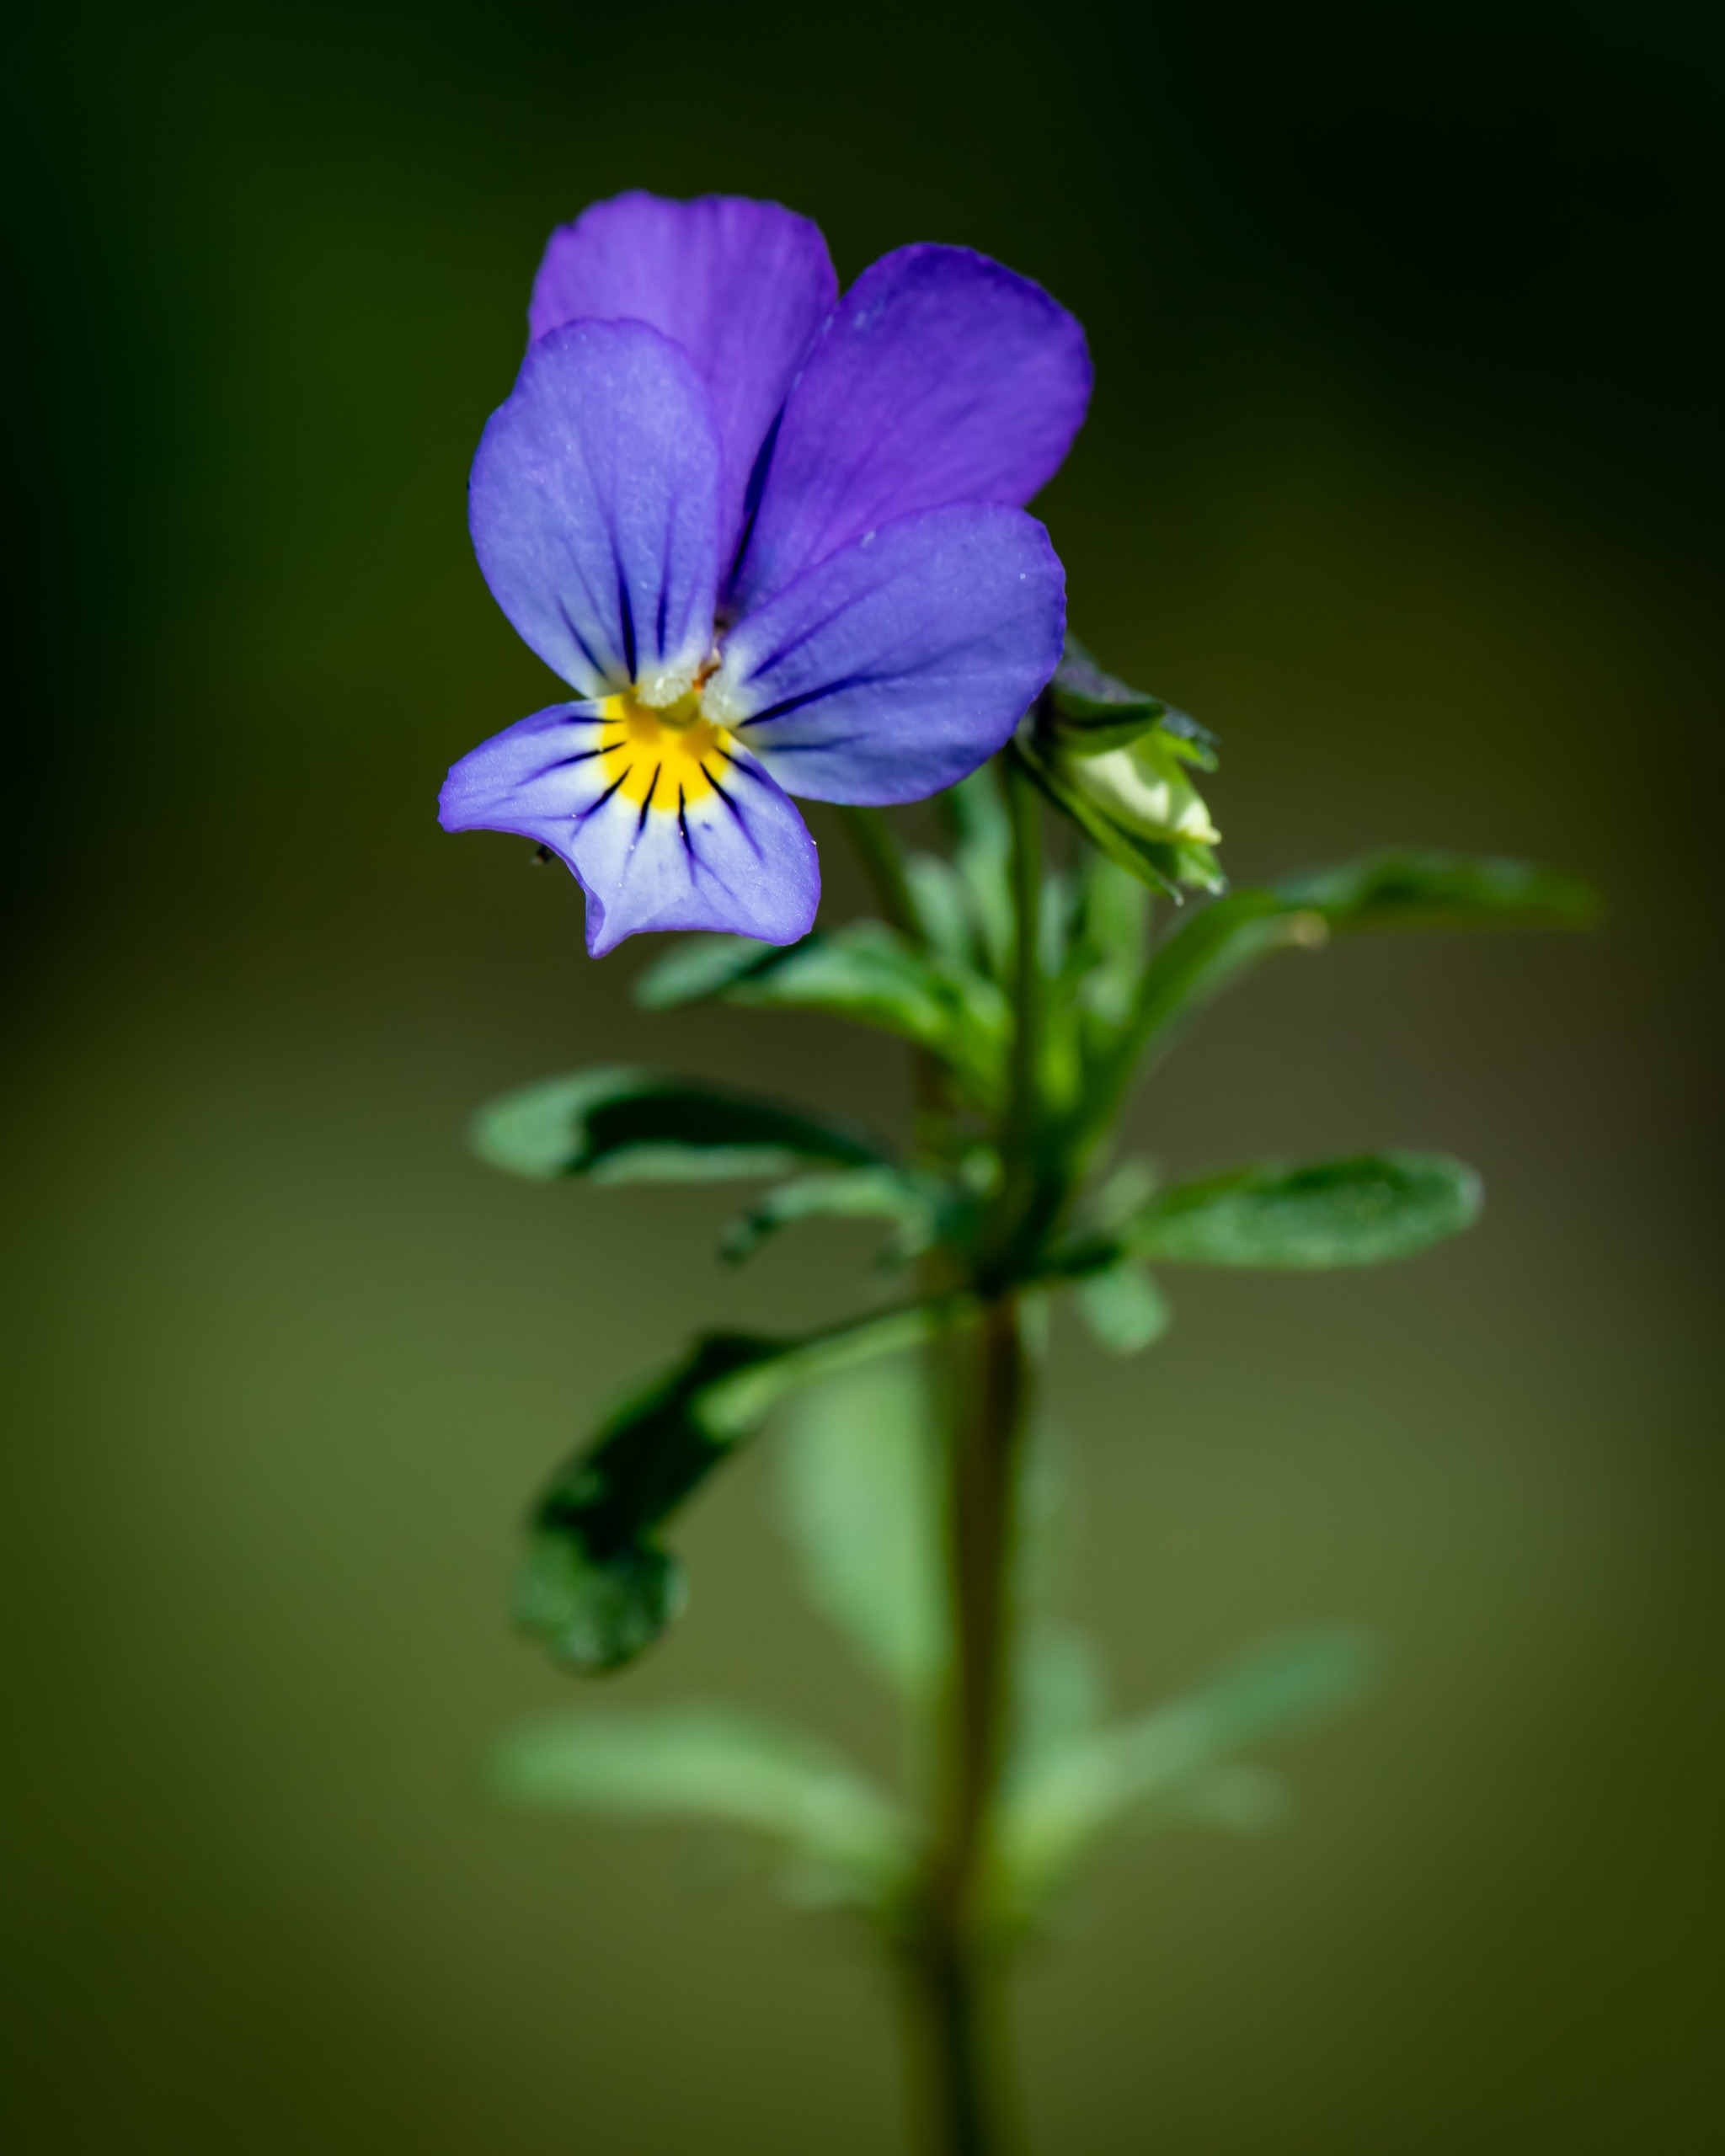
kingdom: Plantae
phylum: Tracheophyta
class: Magnoliopsida
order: Malpighiales
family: Violaceae
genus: Viola
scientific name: Viola tricolor
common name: Stedmoderblomst
